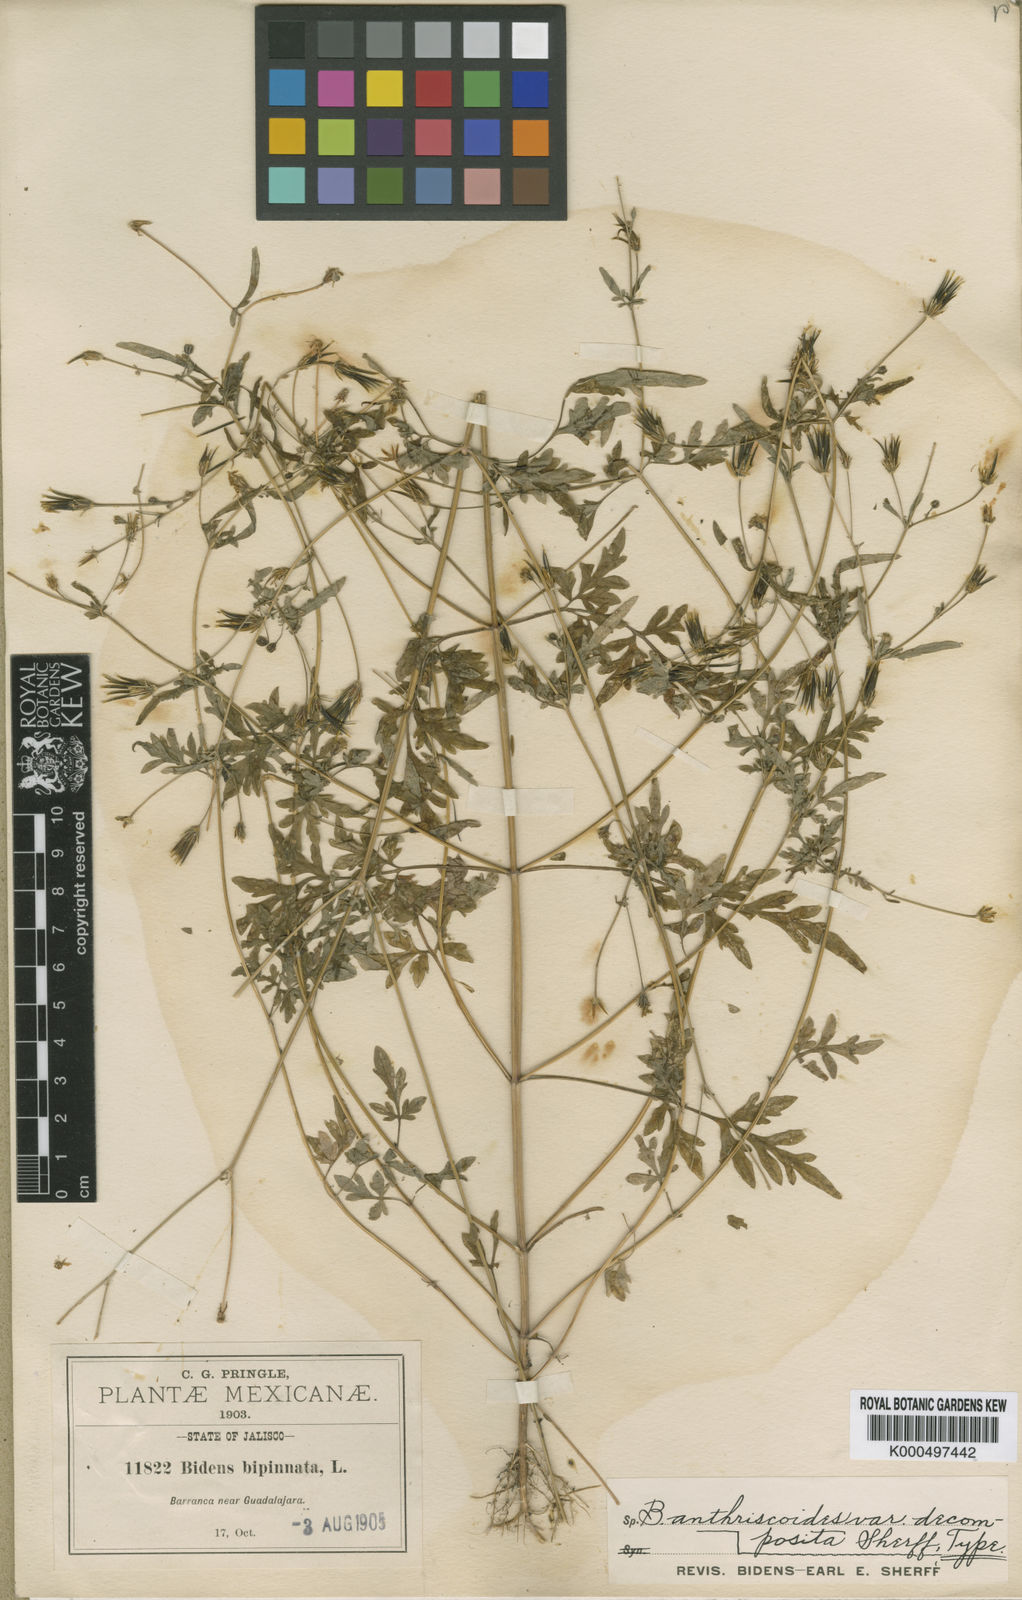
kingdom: Plantae
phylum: Tracheophyta
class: Magnoliopsida
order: Asterales
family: Asteraceae
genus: Bidens
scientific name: Bidens anthriscoides
